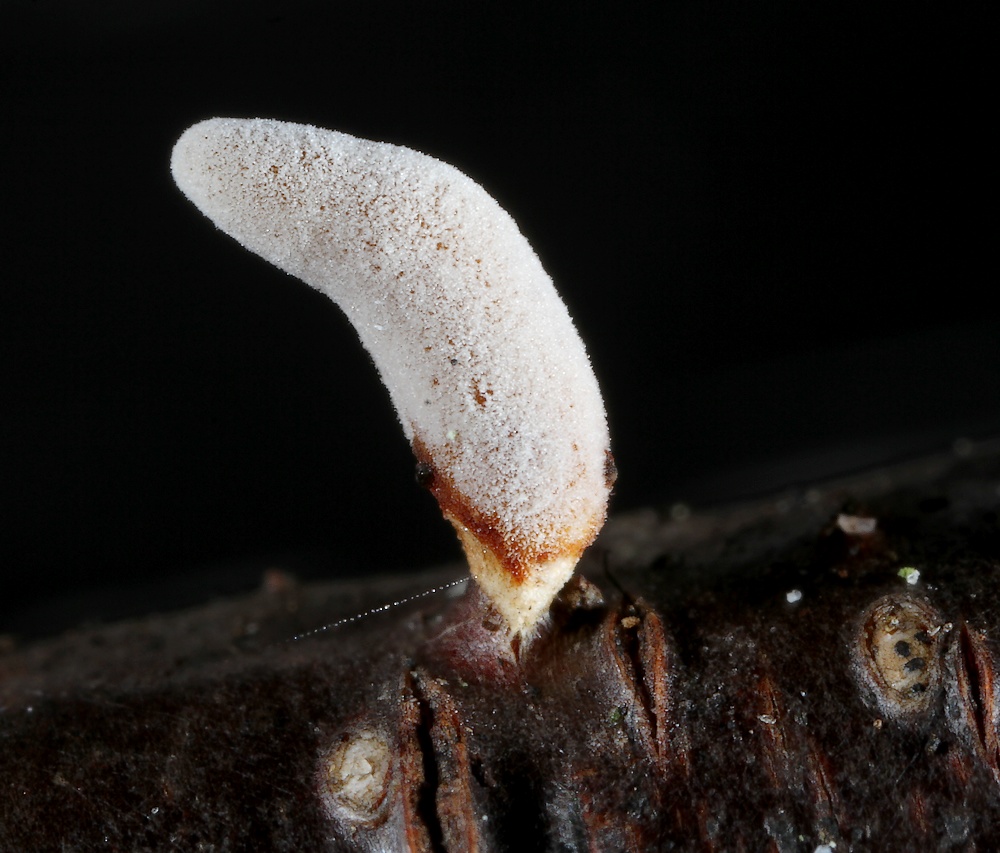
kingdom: Fungi
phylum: Basidiomycota
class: Agaricomycetes
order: Agaricales
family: Typhulaceae
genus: Typhula
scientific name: Typhula contorta
